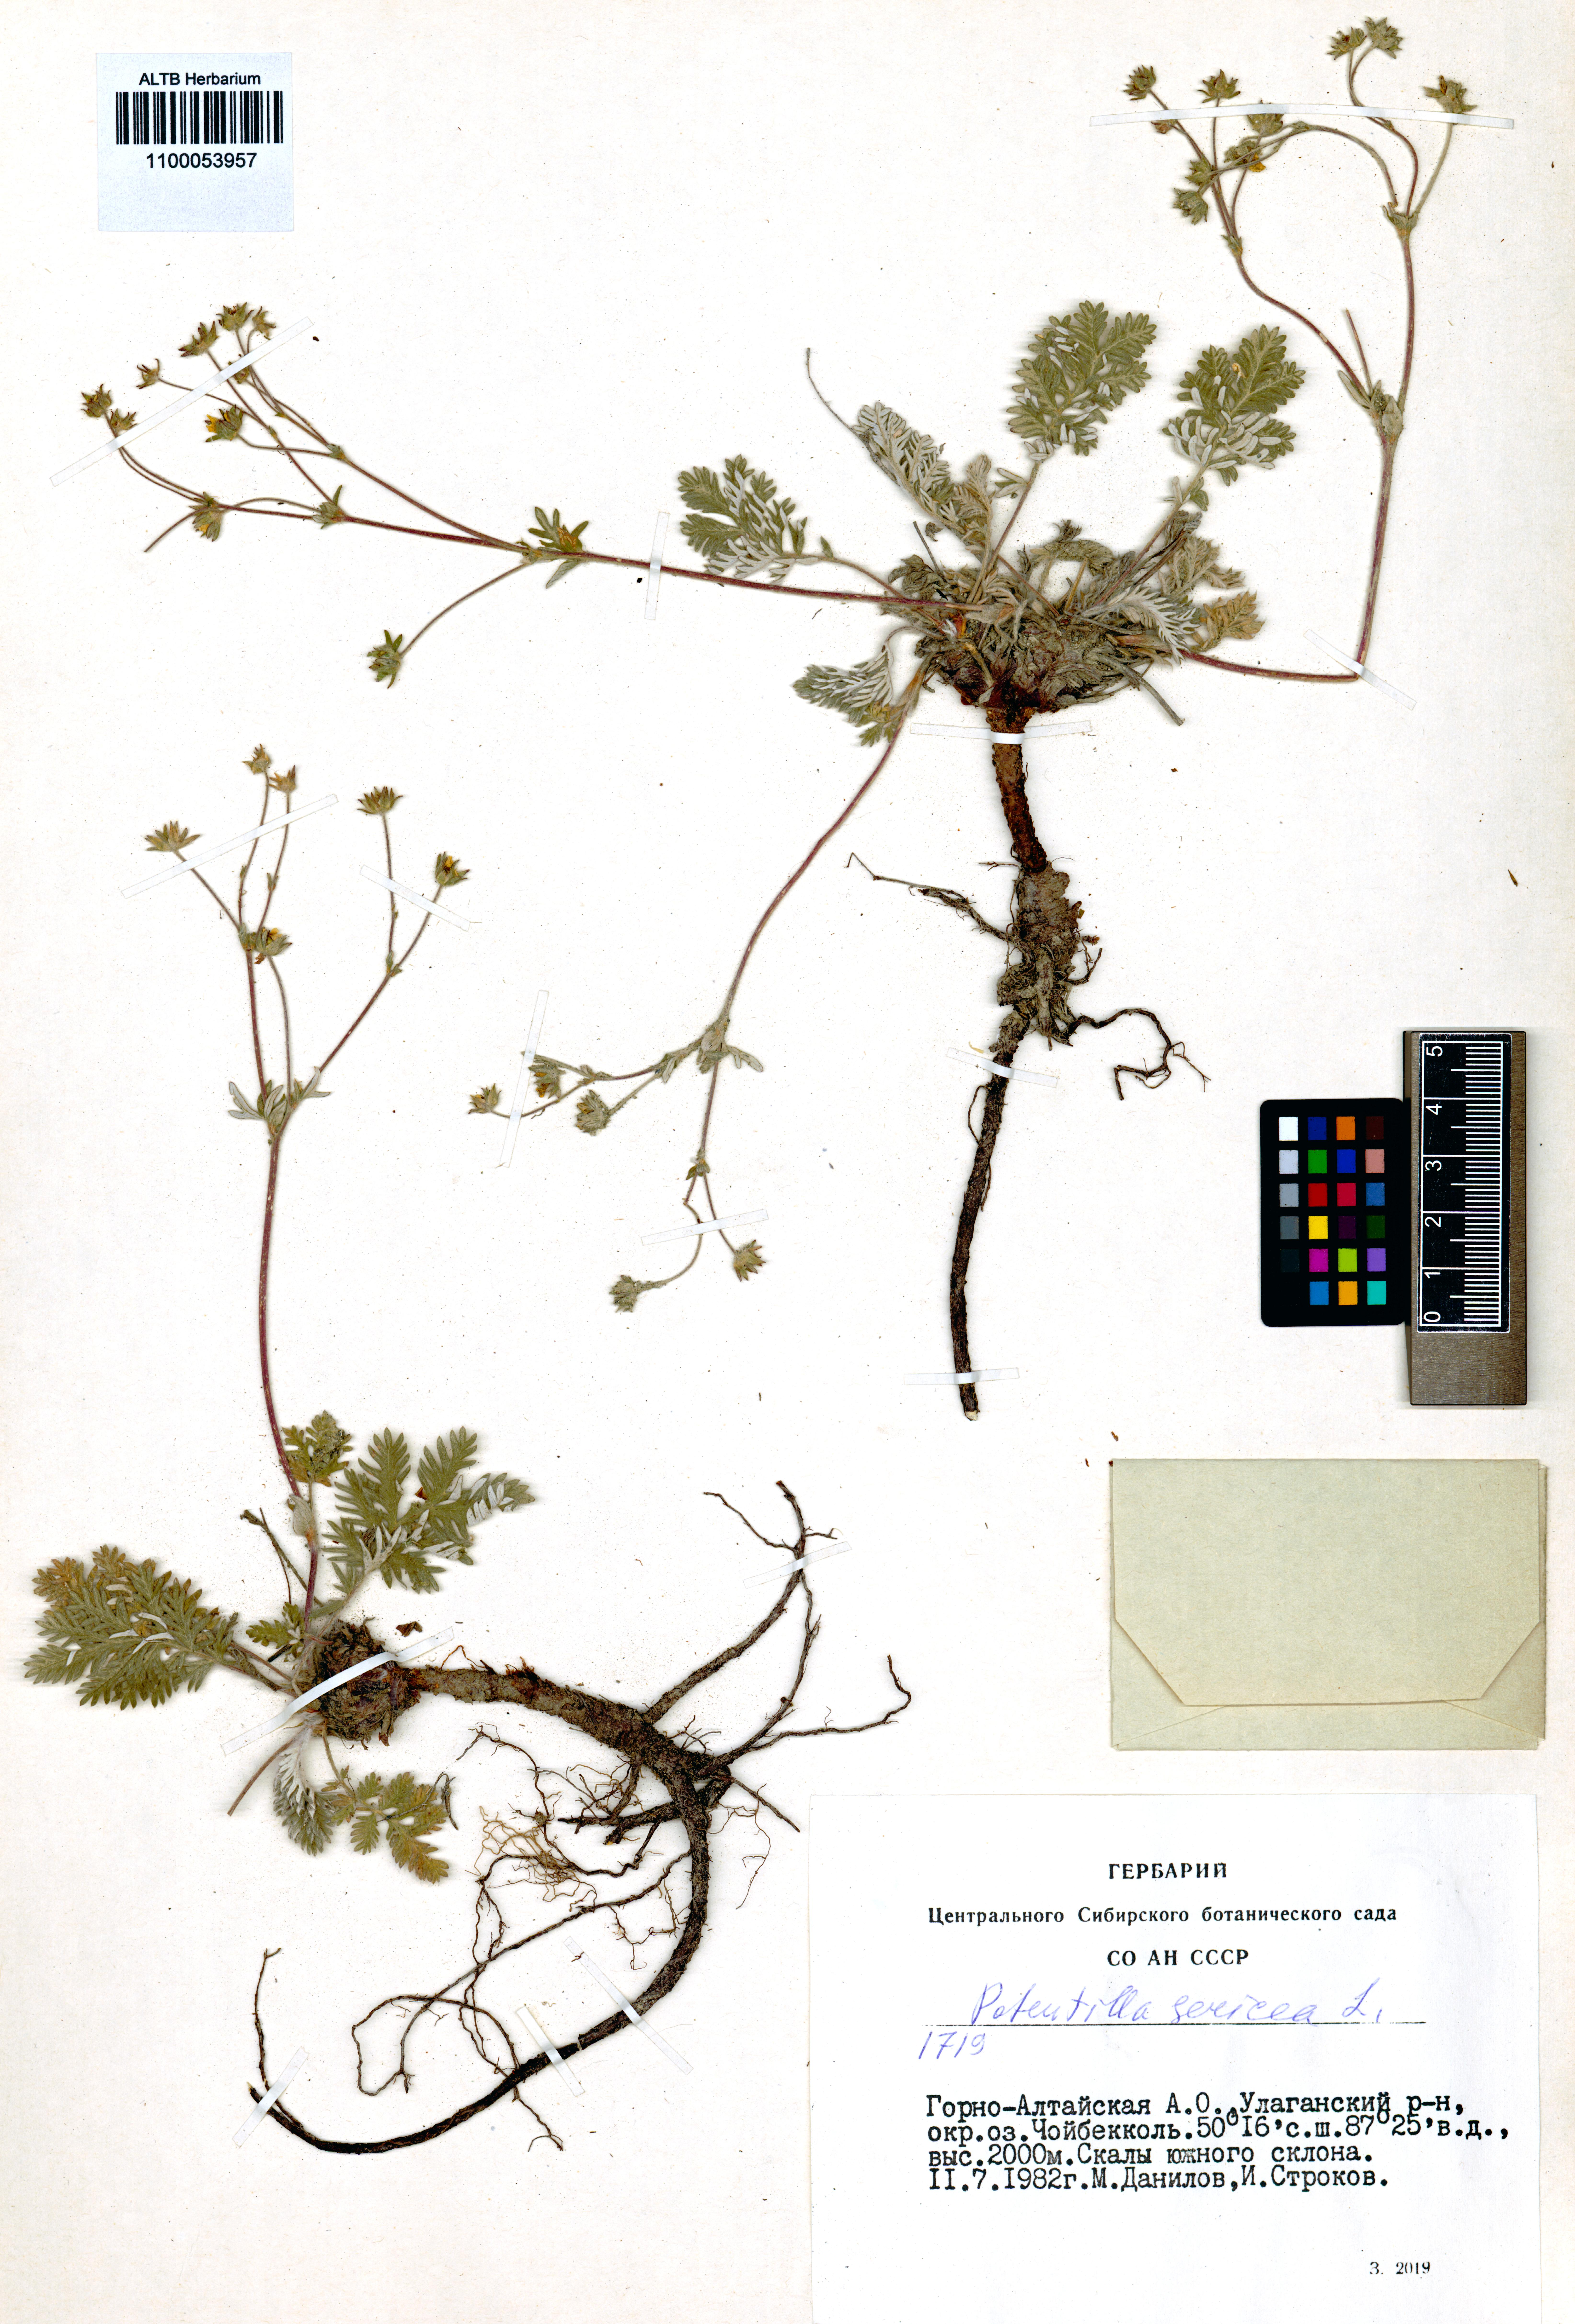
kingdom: Plantae
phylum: Tracheophyta
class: Magnoliopsida
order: Rosales
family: Rosaceae
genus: Potentilla
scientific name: Potentilla sericea
